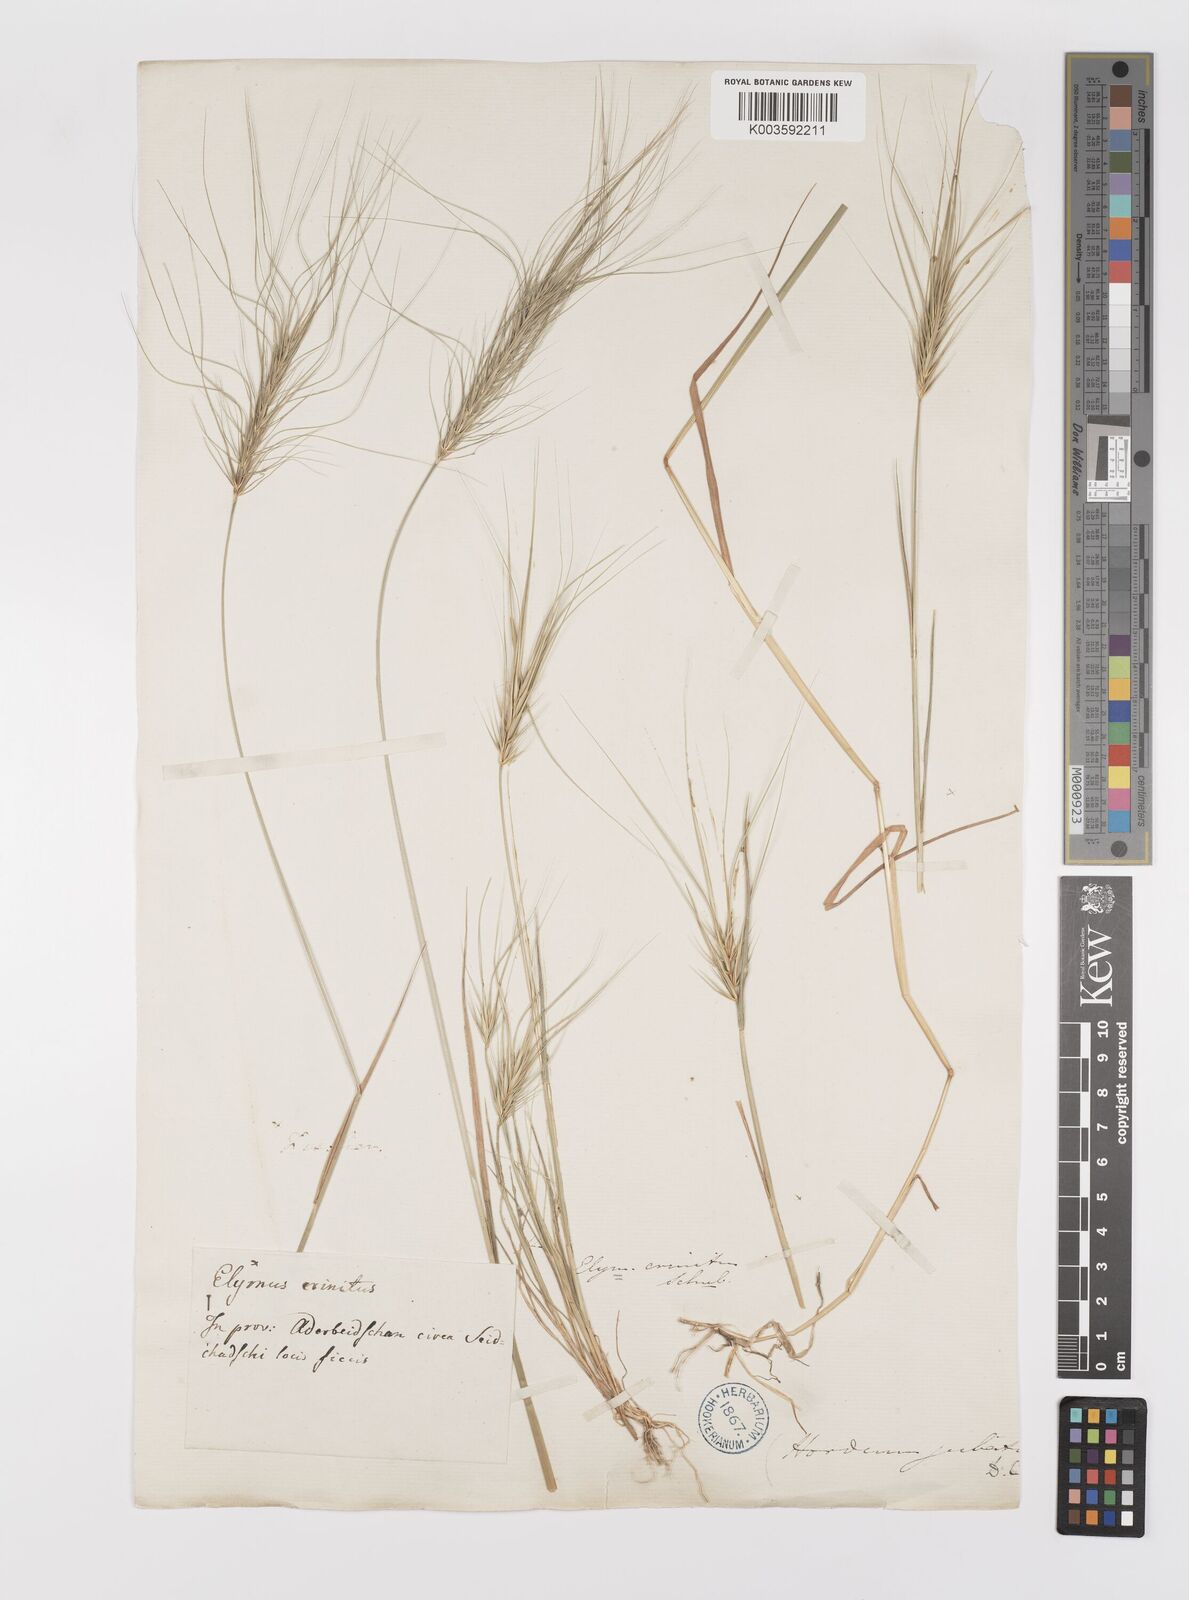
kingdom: Plantae
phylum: Tracheophyta
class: Liliopsida
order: Poales
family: Poaceae
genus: Taeniatherum
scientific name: Taeniatherum caput-medusae
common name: Medusahead
